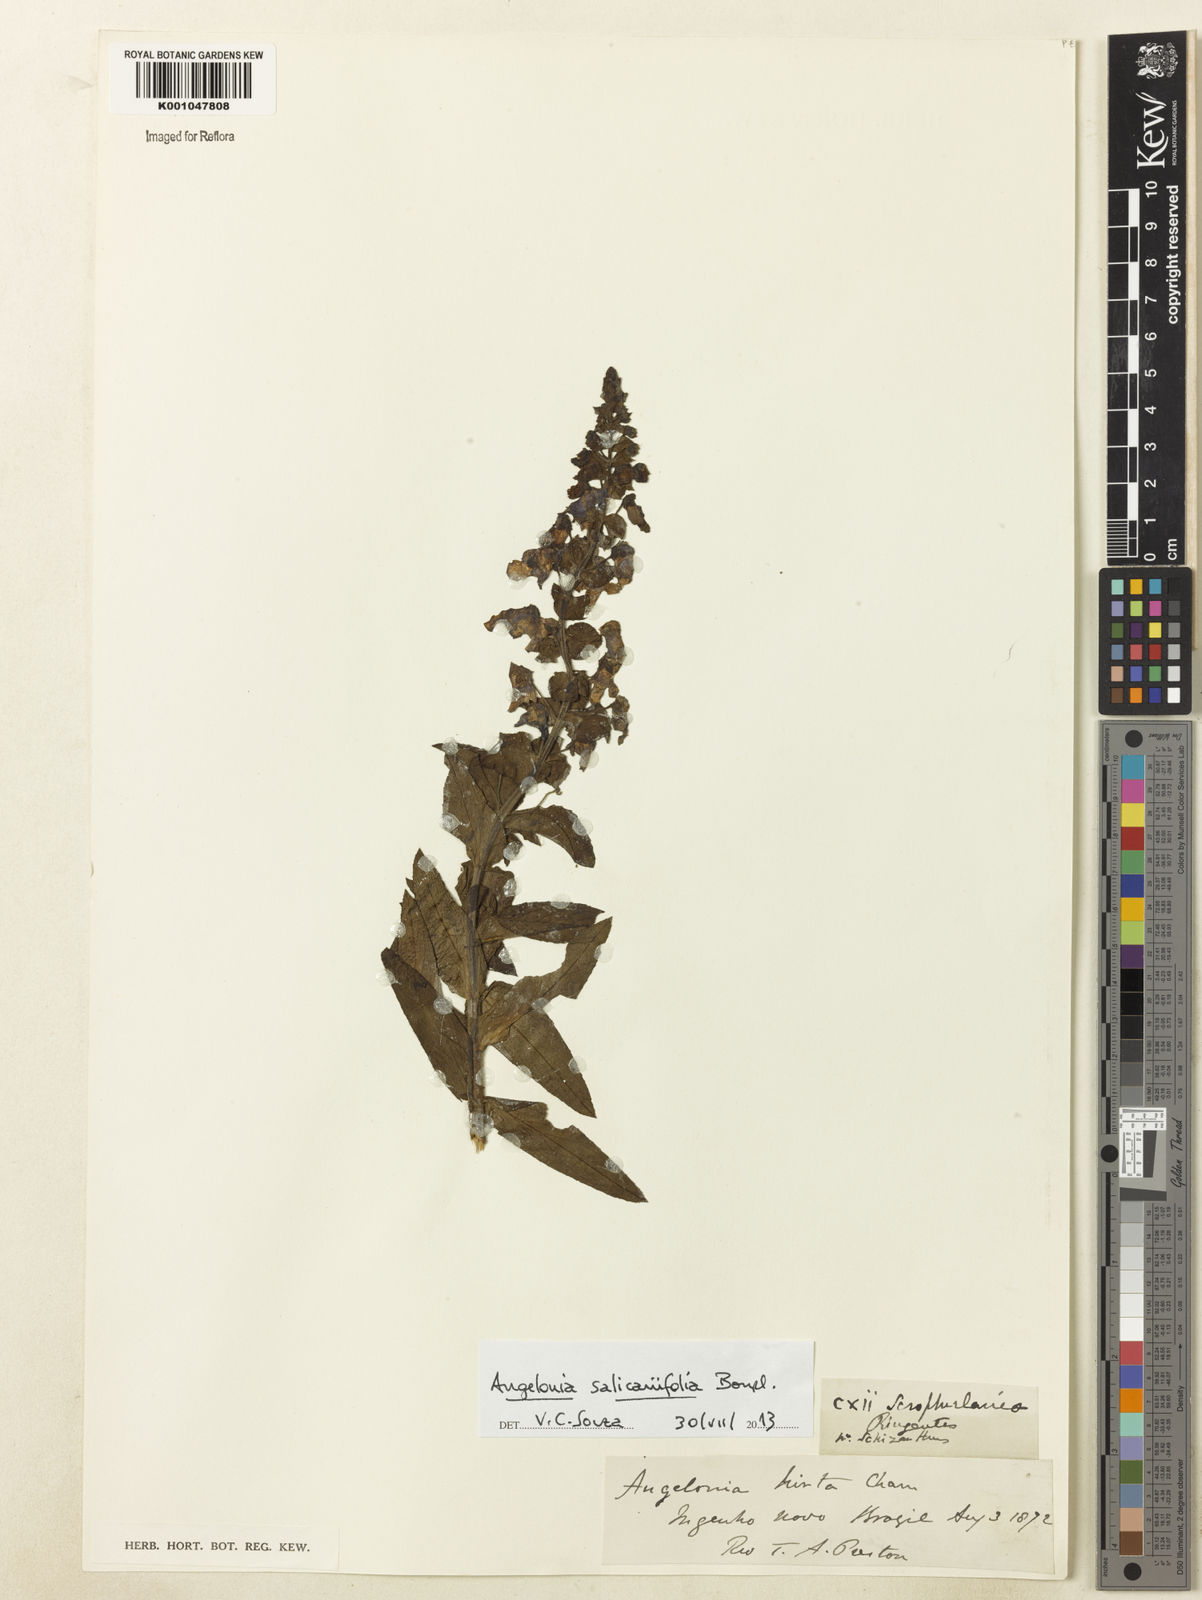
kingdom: Plantae
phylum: Tracheophyta
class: Magnoliopsida
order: Lamiales
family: Plantaginaceae
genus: Angelonia
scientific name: Angelonia salicariifolia
